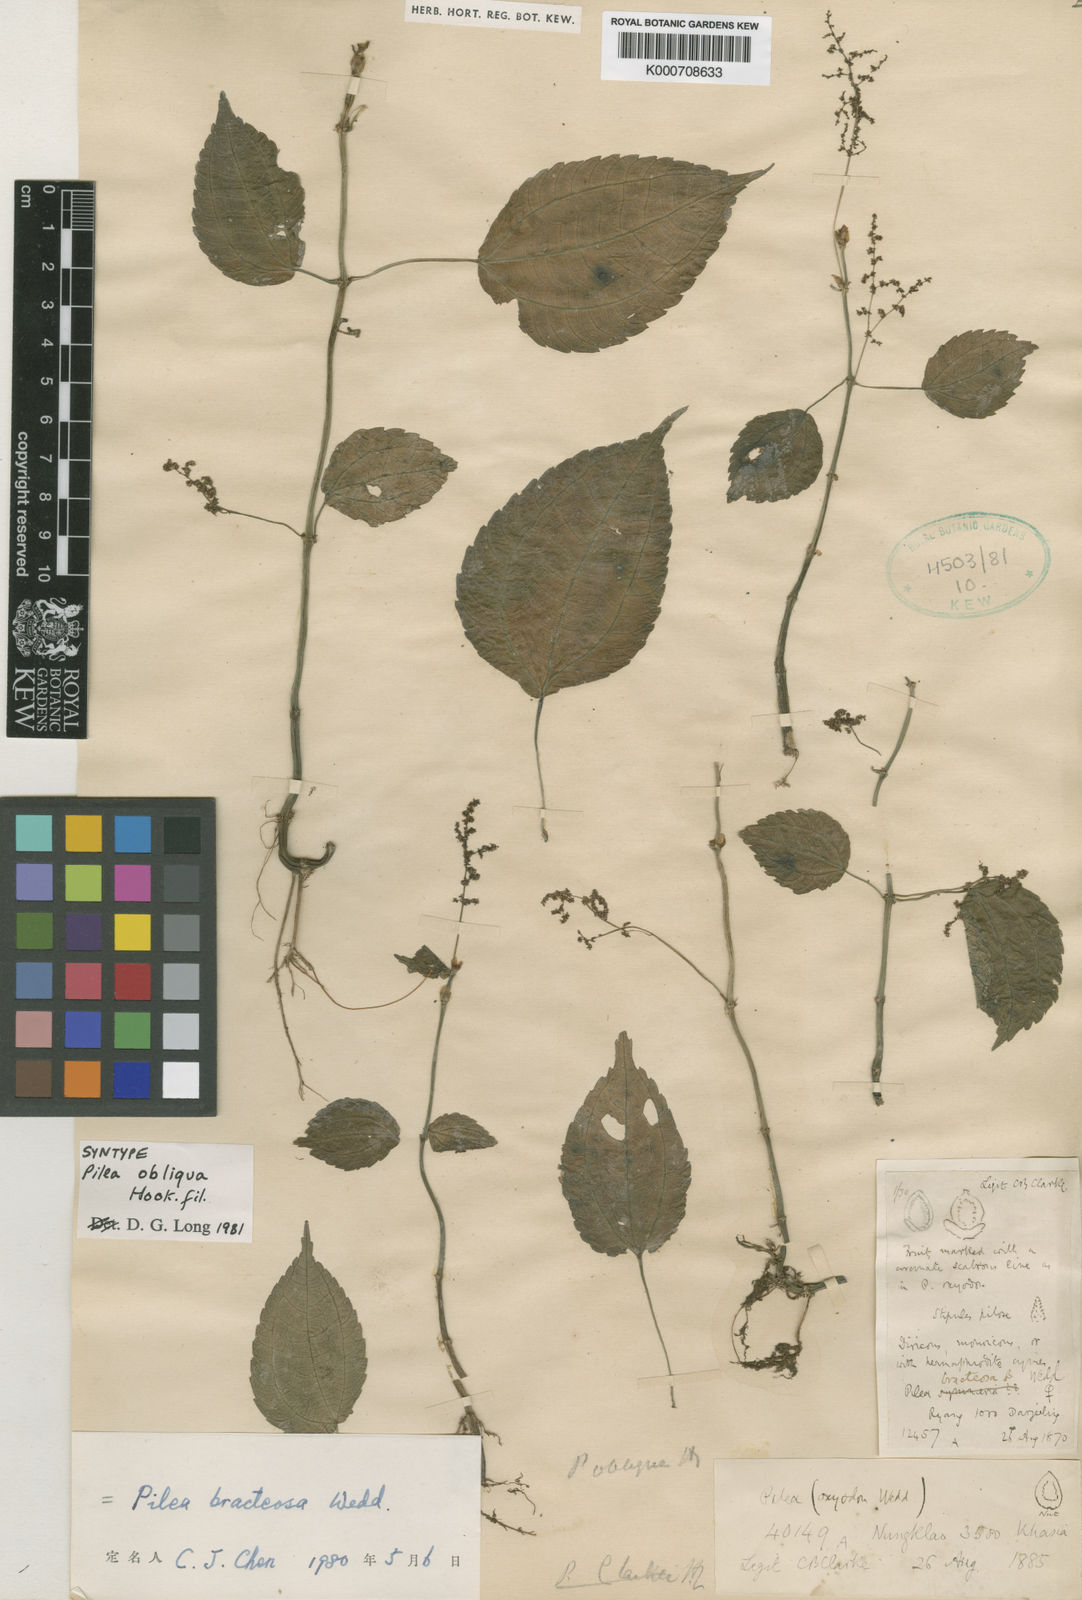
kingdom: Plantae
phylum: Tracheophyta
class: Magnoliopsida
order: Rosales
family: Urticaceae
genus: Pilea
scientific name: Pilea bracteosa
